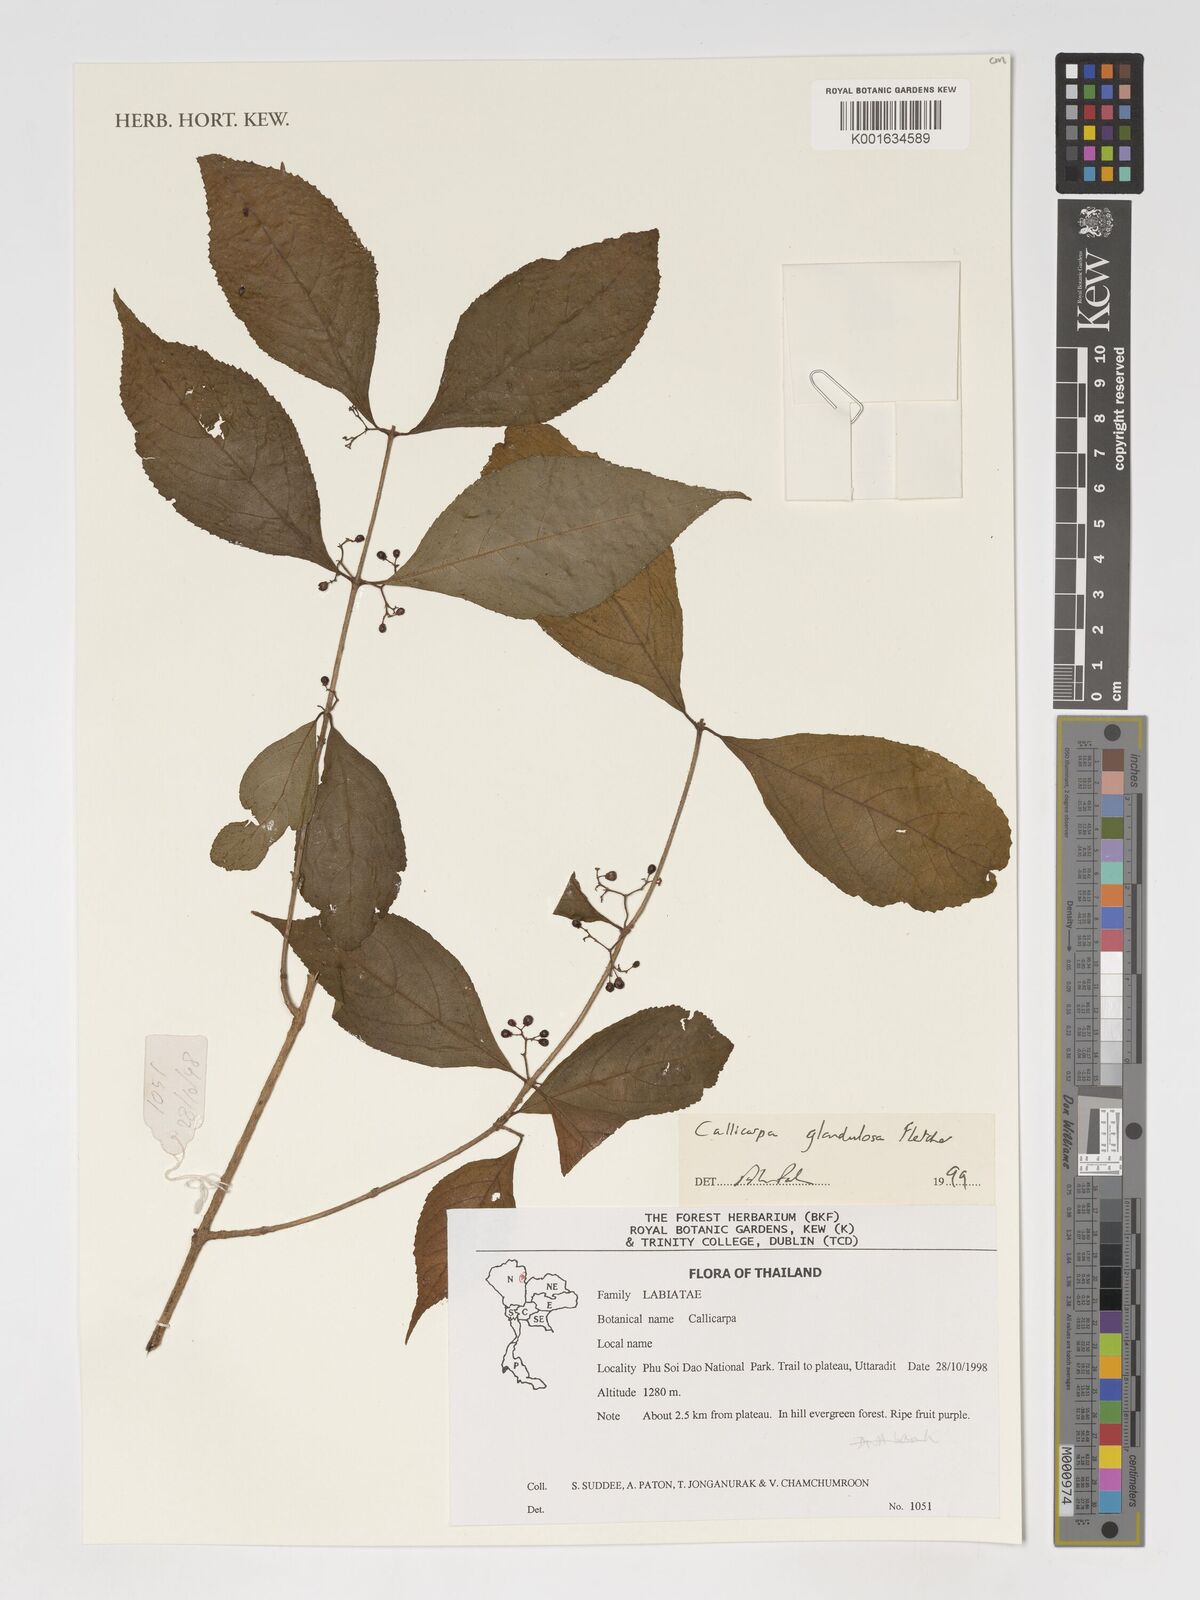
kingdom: Plantae
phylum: Tracheophyta
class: Magnoliopsida
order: Lamiales
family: Lamiaceae
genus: Callicarpa
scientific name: Callicarpa bodinieri
